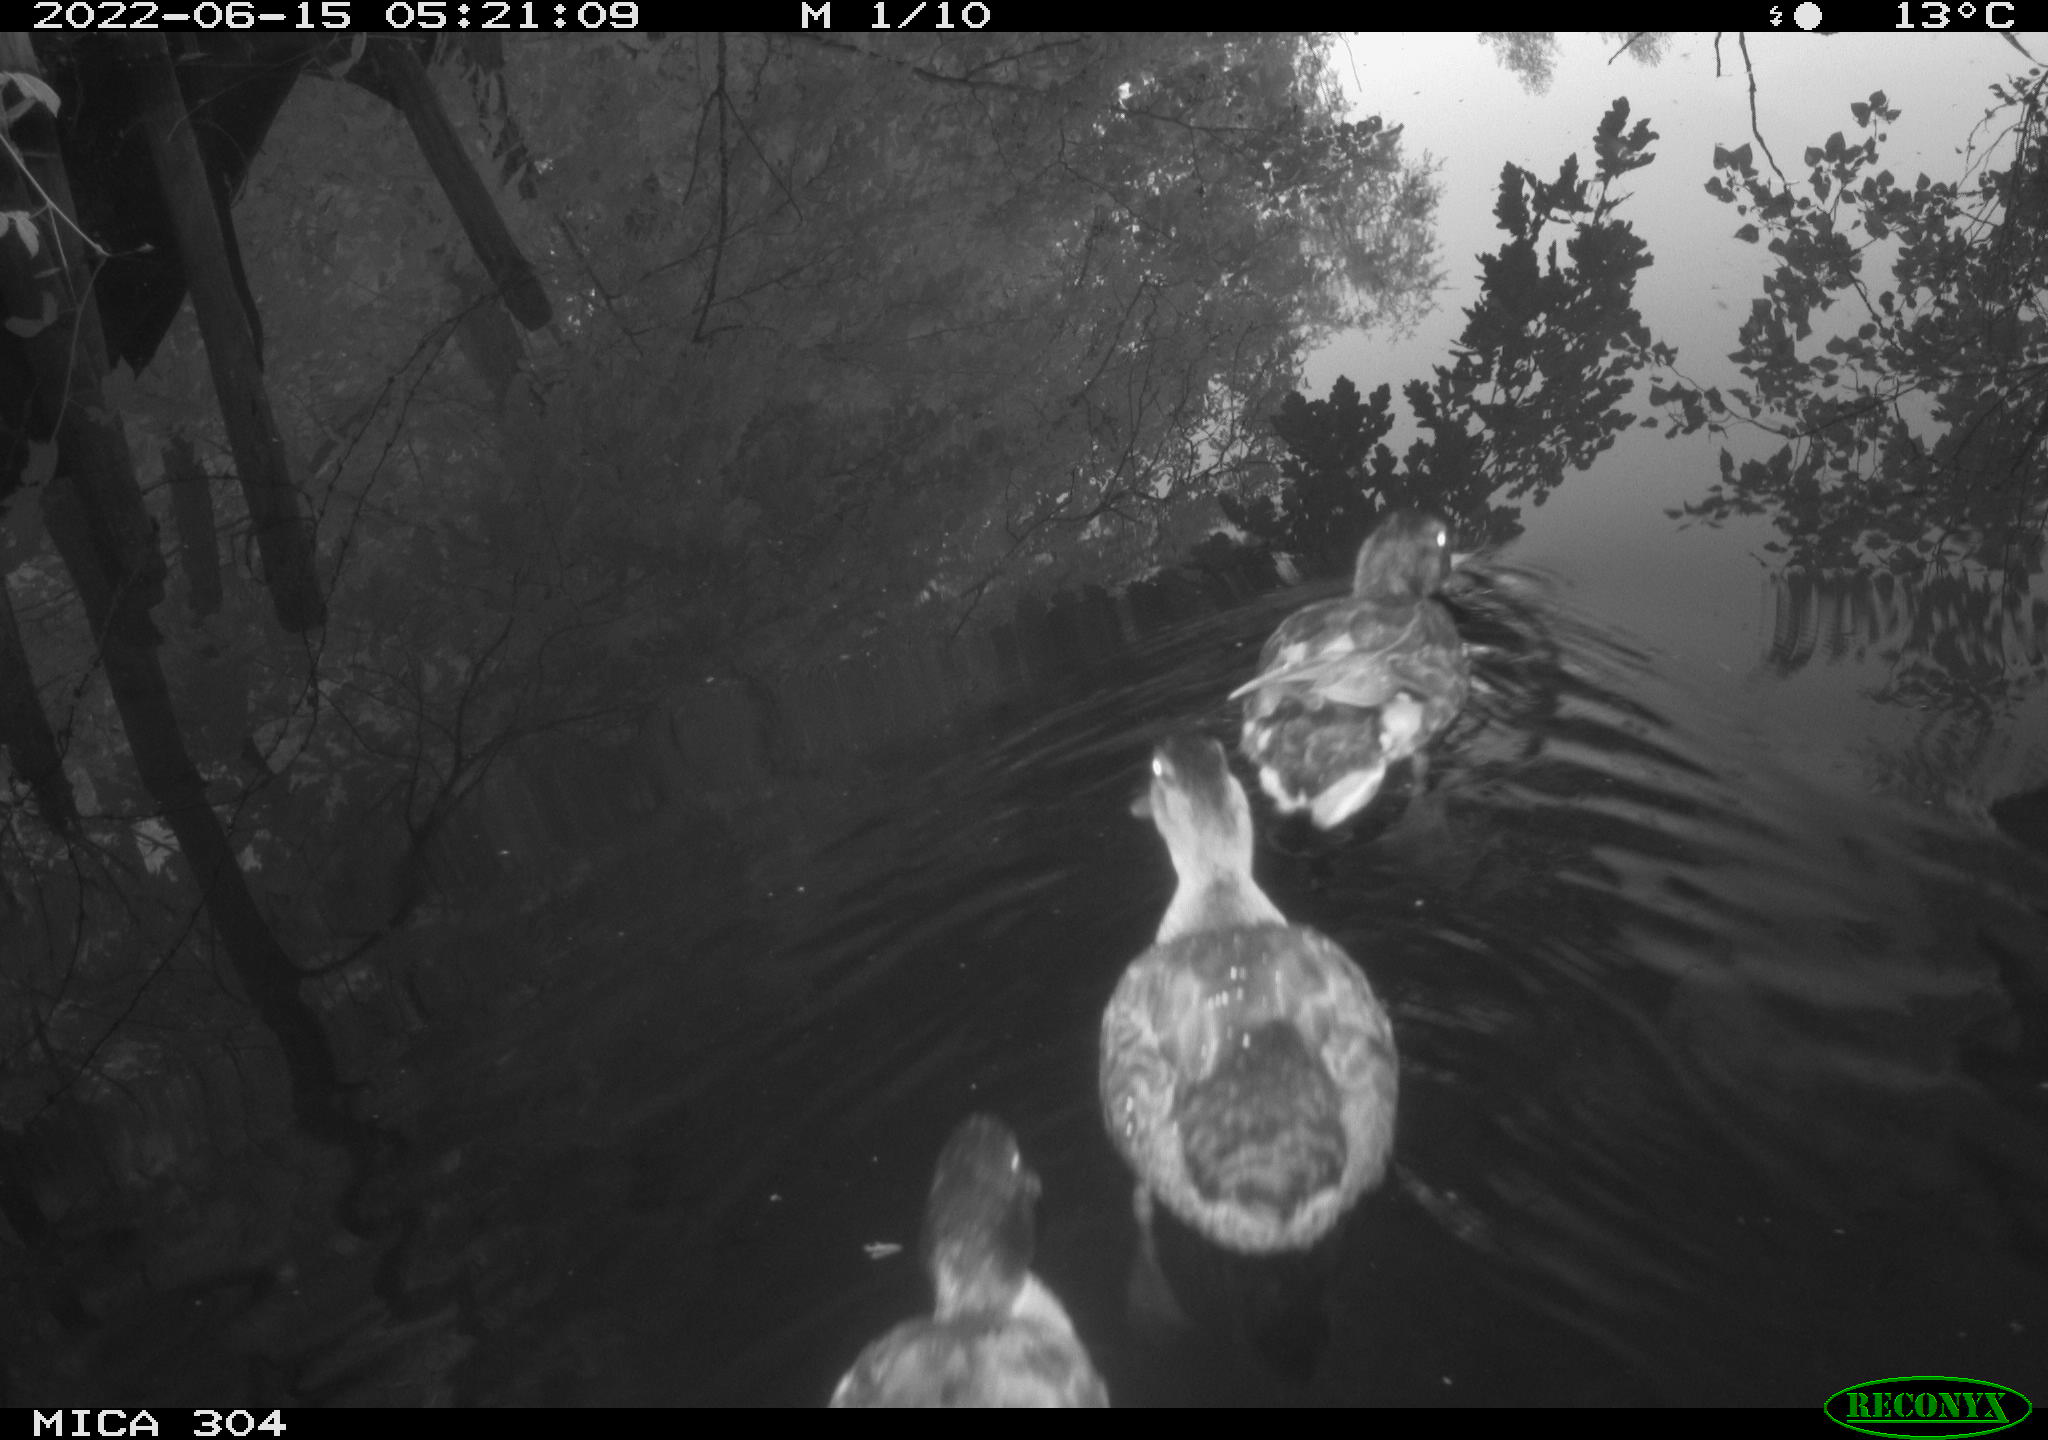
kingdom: Animalia
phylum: Chordata
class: Aves
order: Anseriformes
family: Anatidae
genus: Anas
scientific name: Anas platyrhynchos
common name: Mallard
